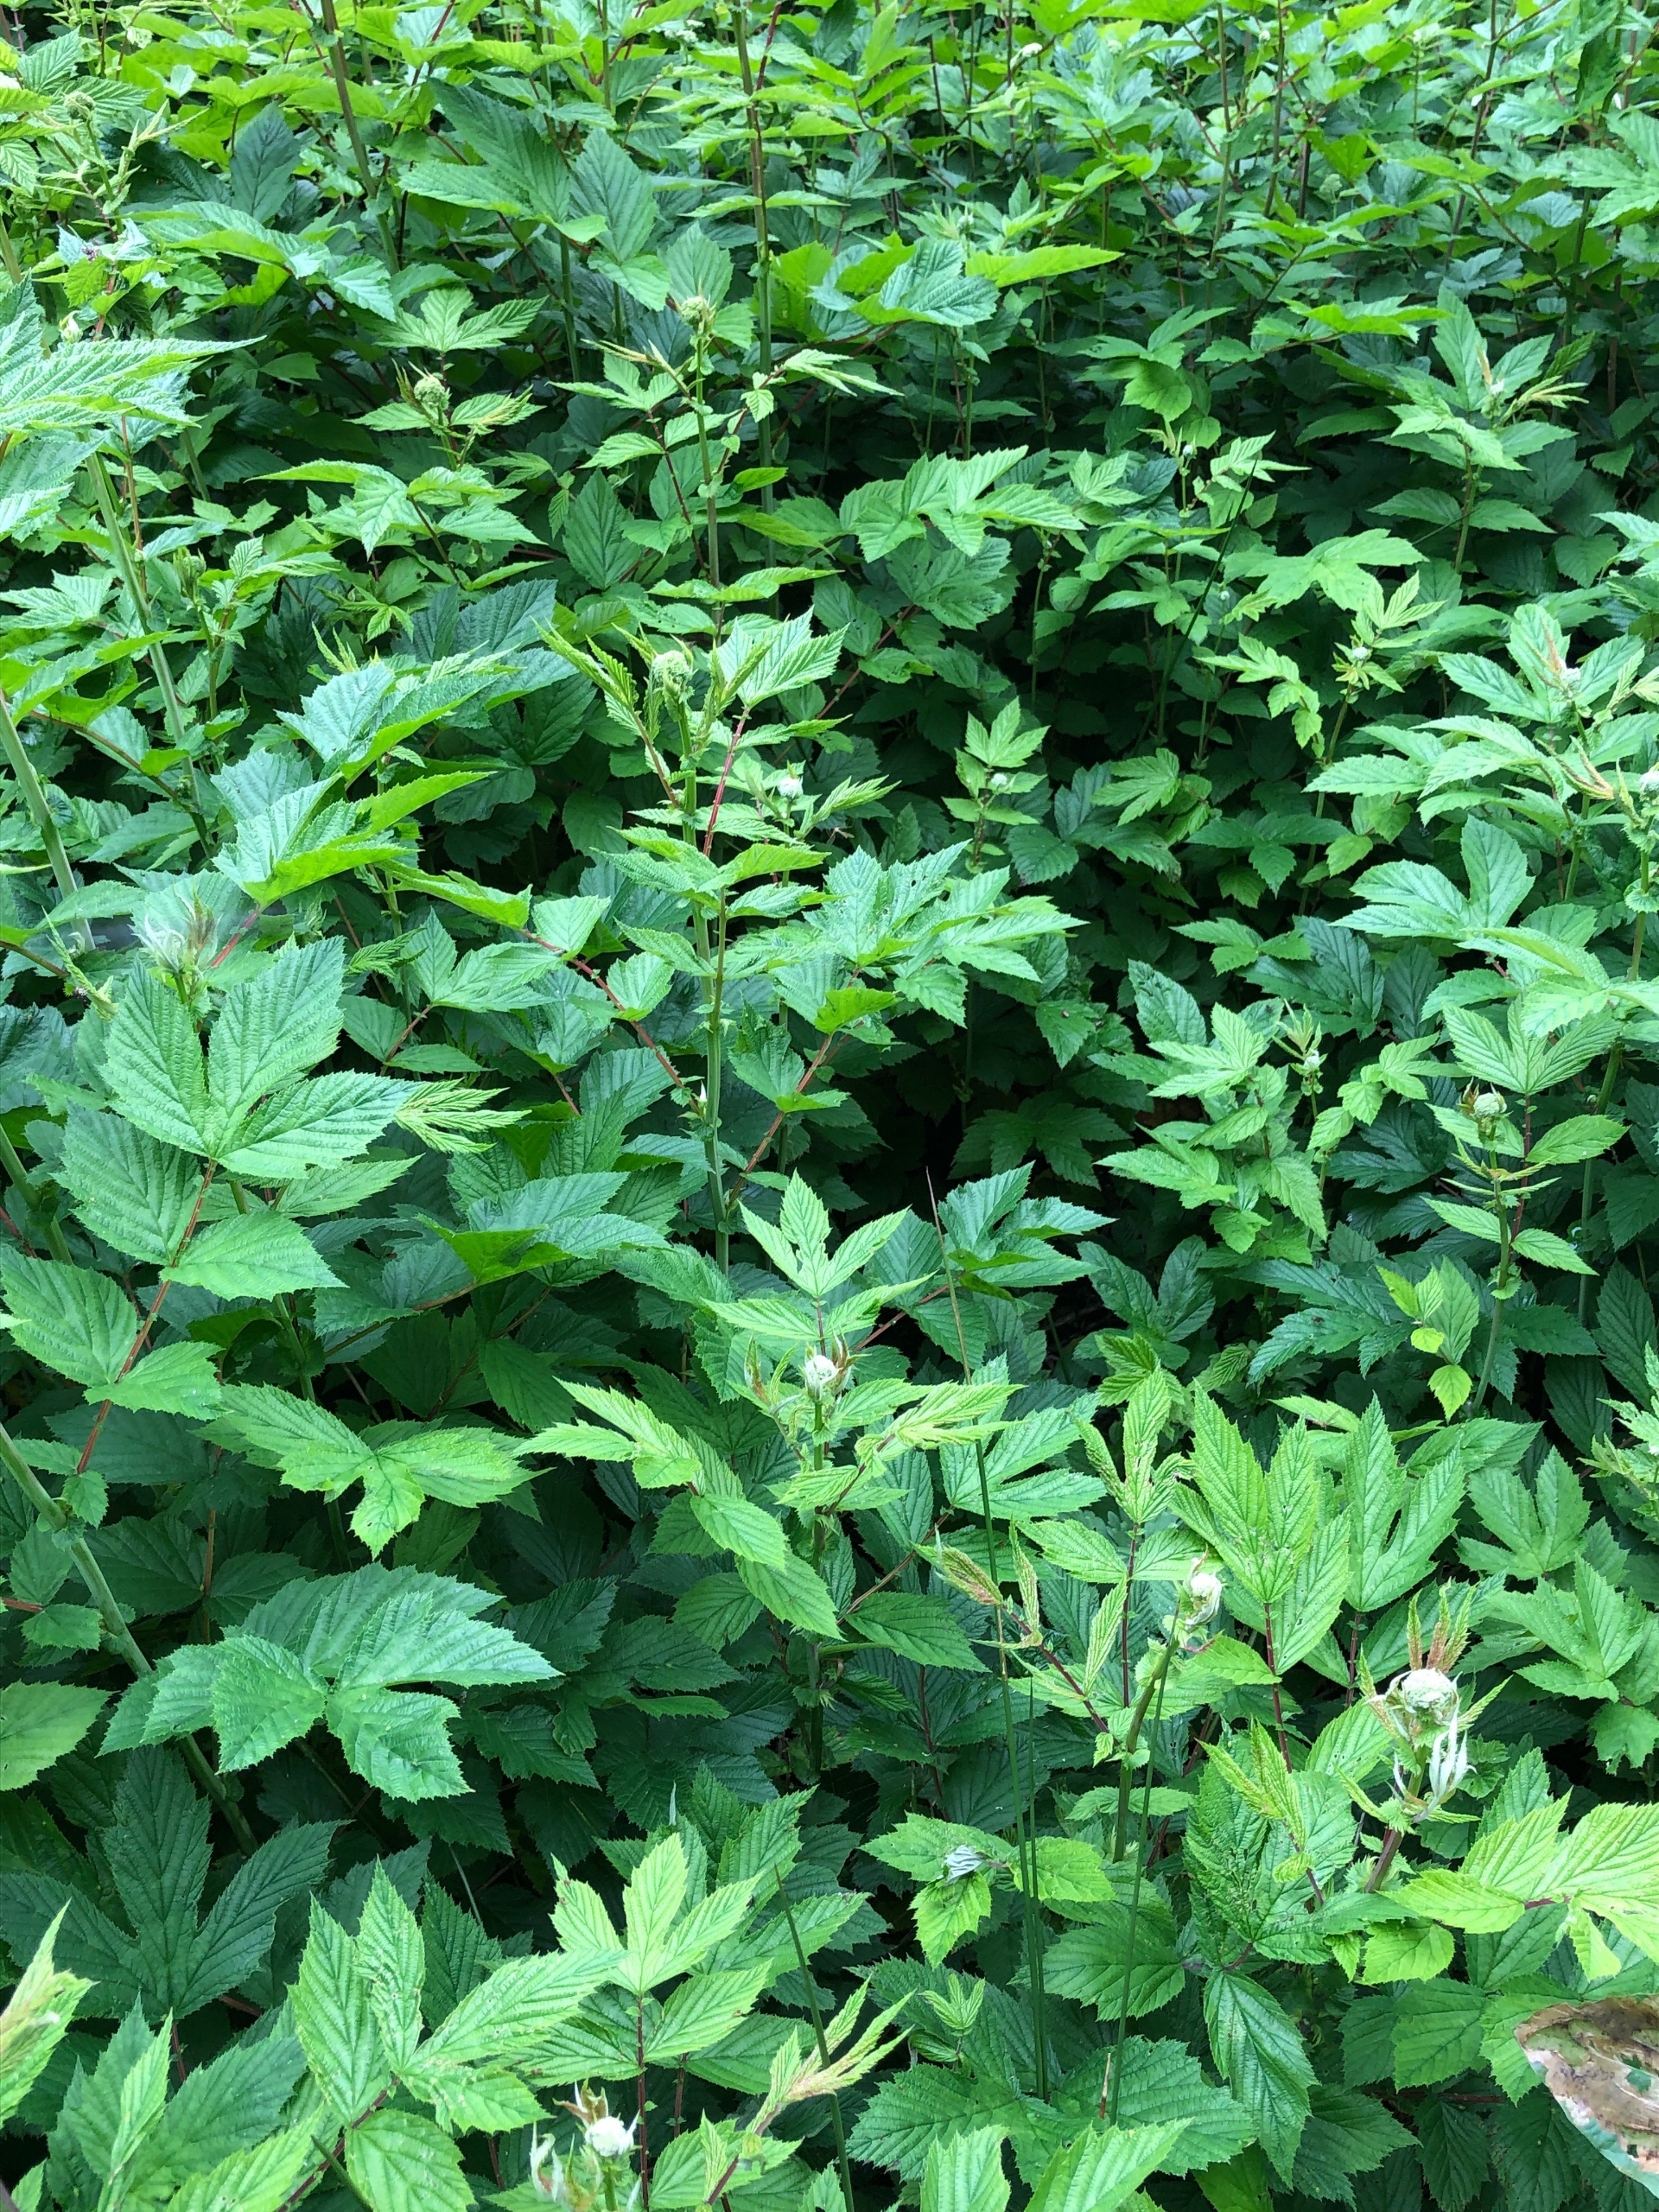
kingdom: Plantae
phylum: Tracheophyta
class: Magnoliopsida
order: Rosales
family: Rosaceae
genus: Filipendula
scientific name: Filipendula ulmaria
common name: Almindelig mjødurt
